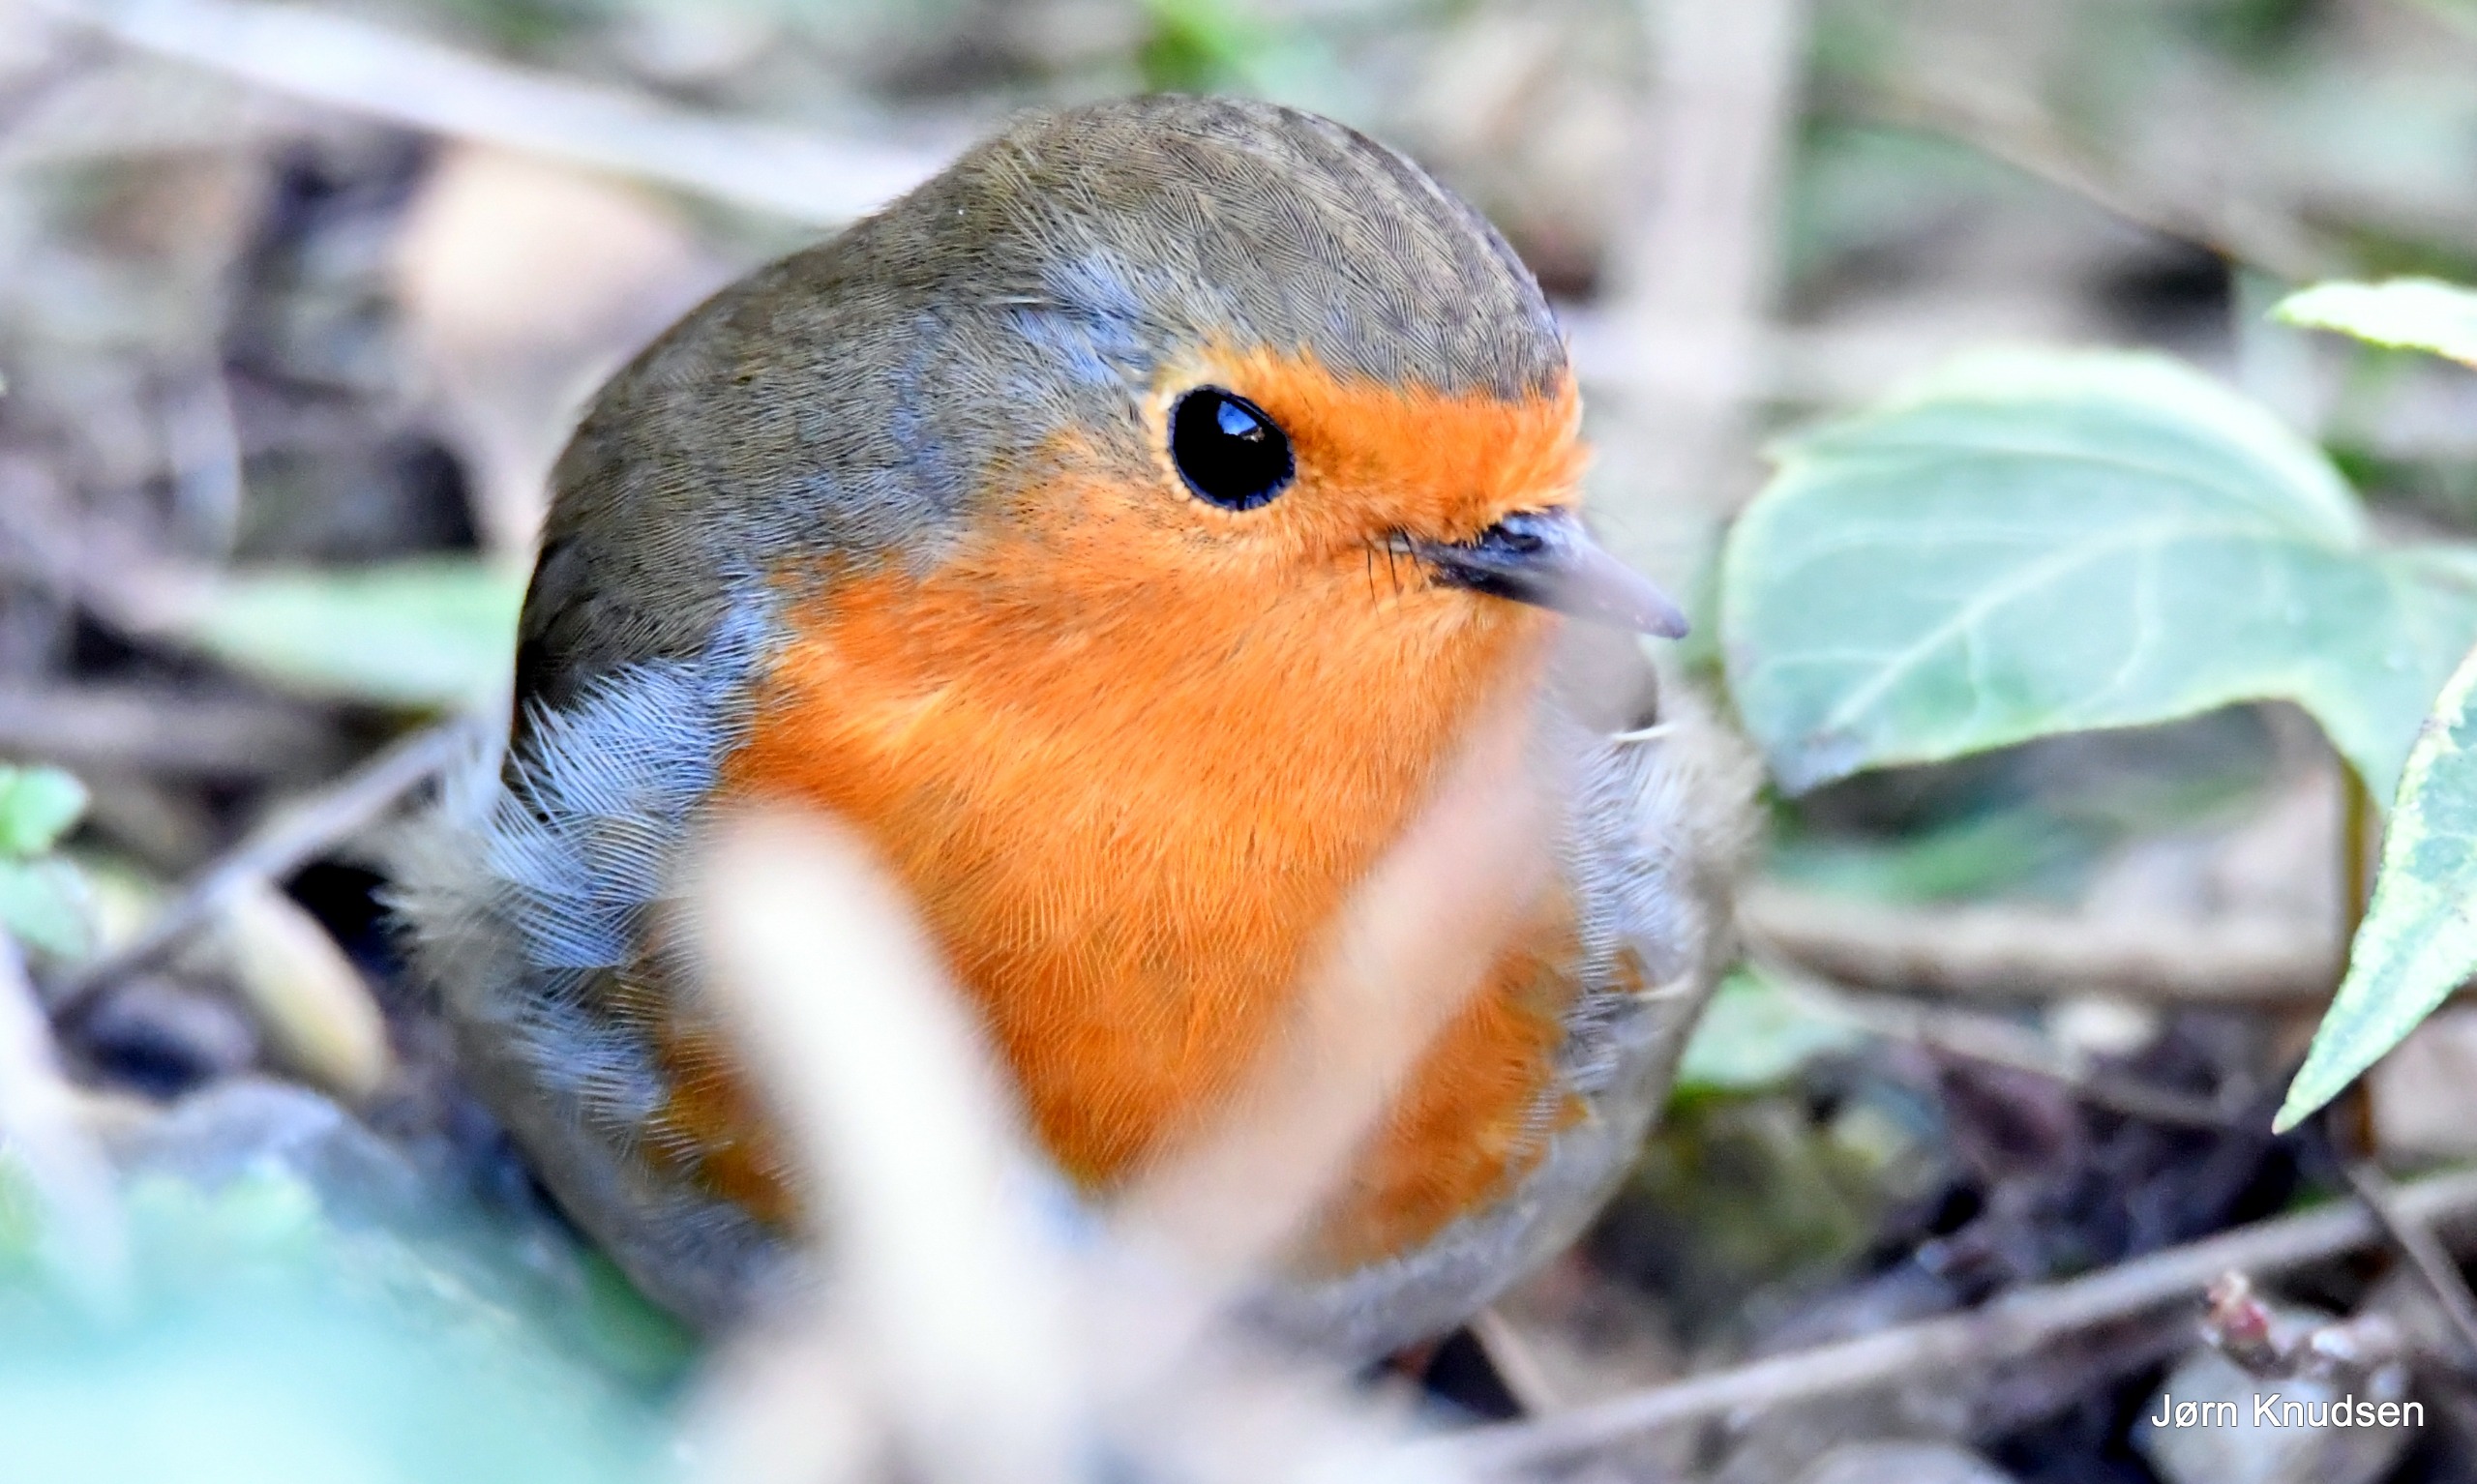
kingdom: Animalia
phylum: Chordata
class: Aves
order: Passeriformes
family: Muscicapidae
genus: Erithacus
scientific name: Erithacus rubecula
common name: Rødhals/rødkælk
